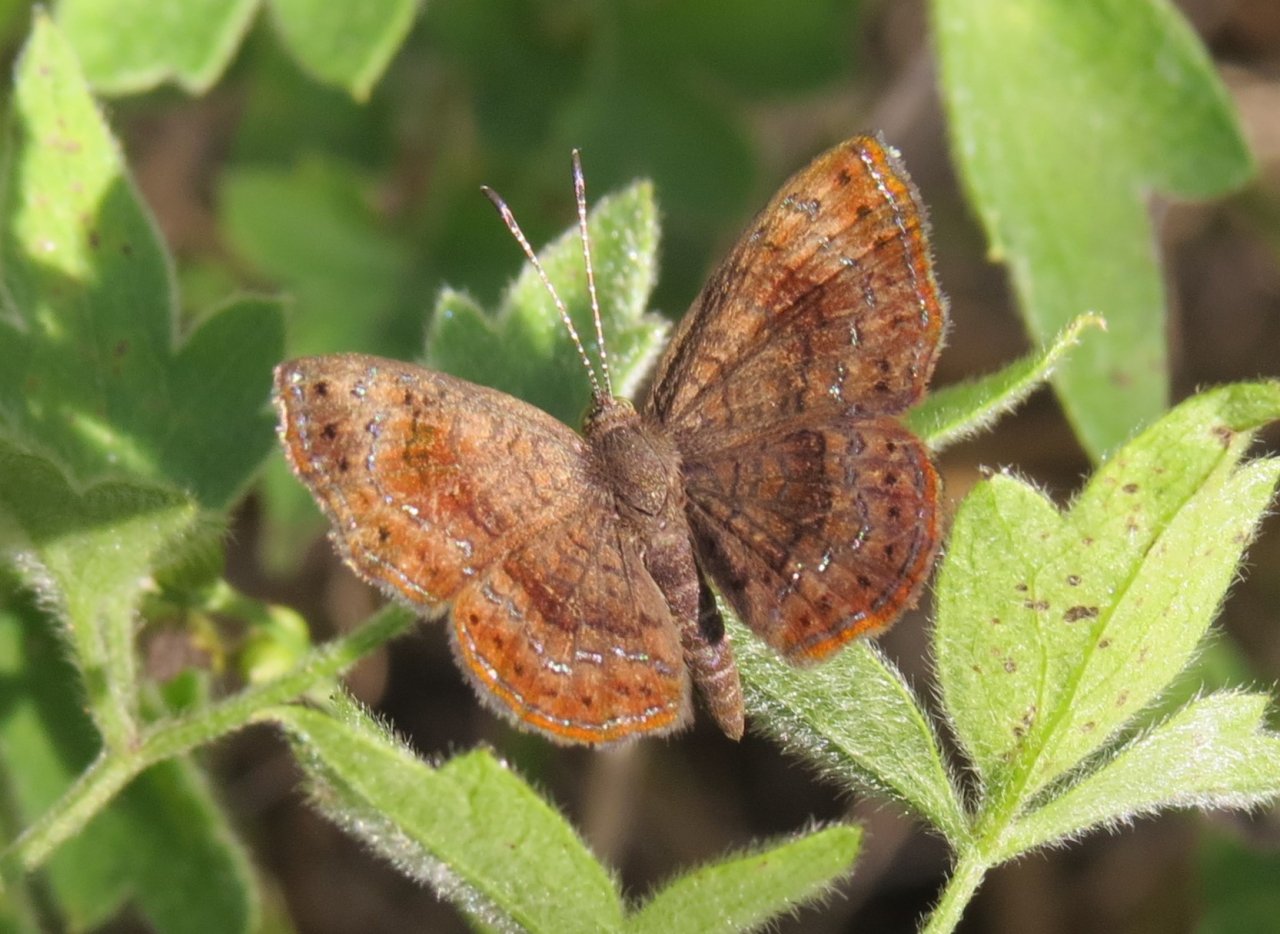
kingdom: Animalia
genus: Calephelis
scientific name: Calephelis perditalis
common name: Rounded Metalmark
